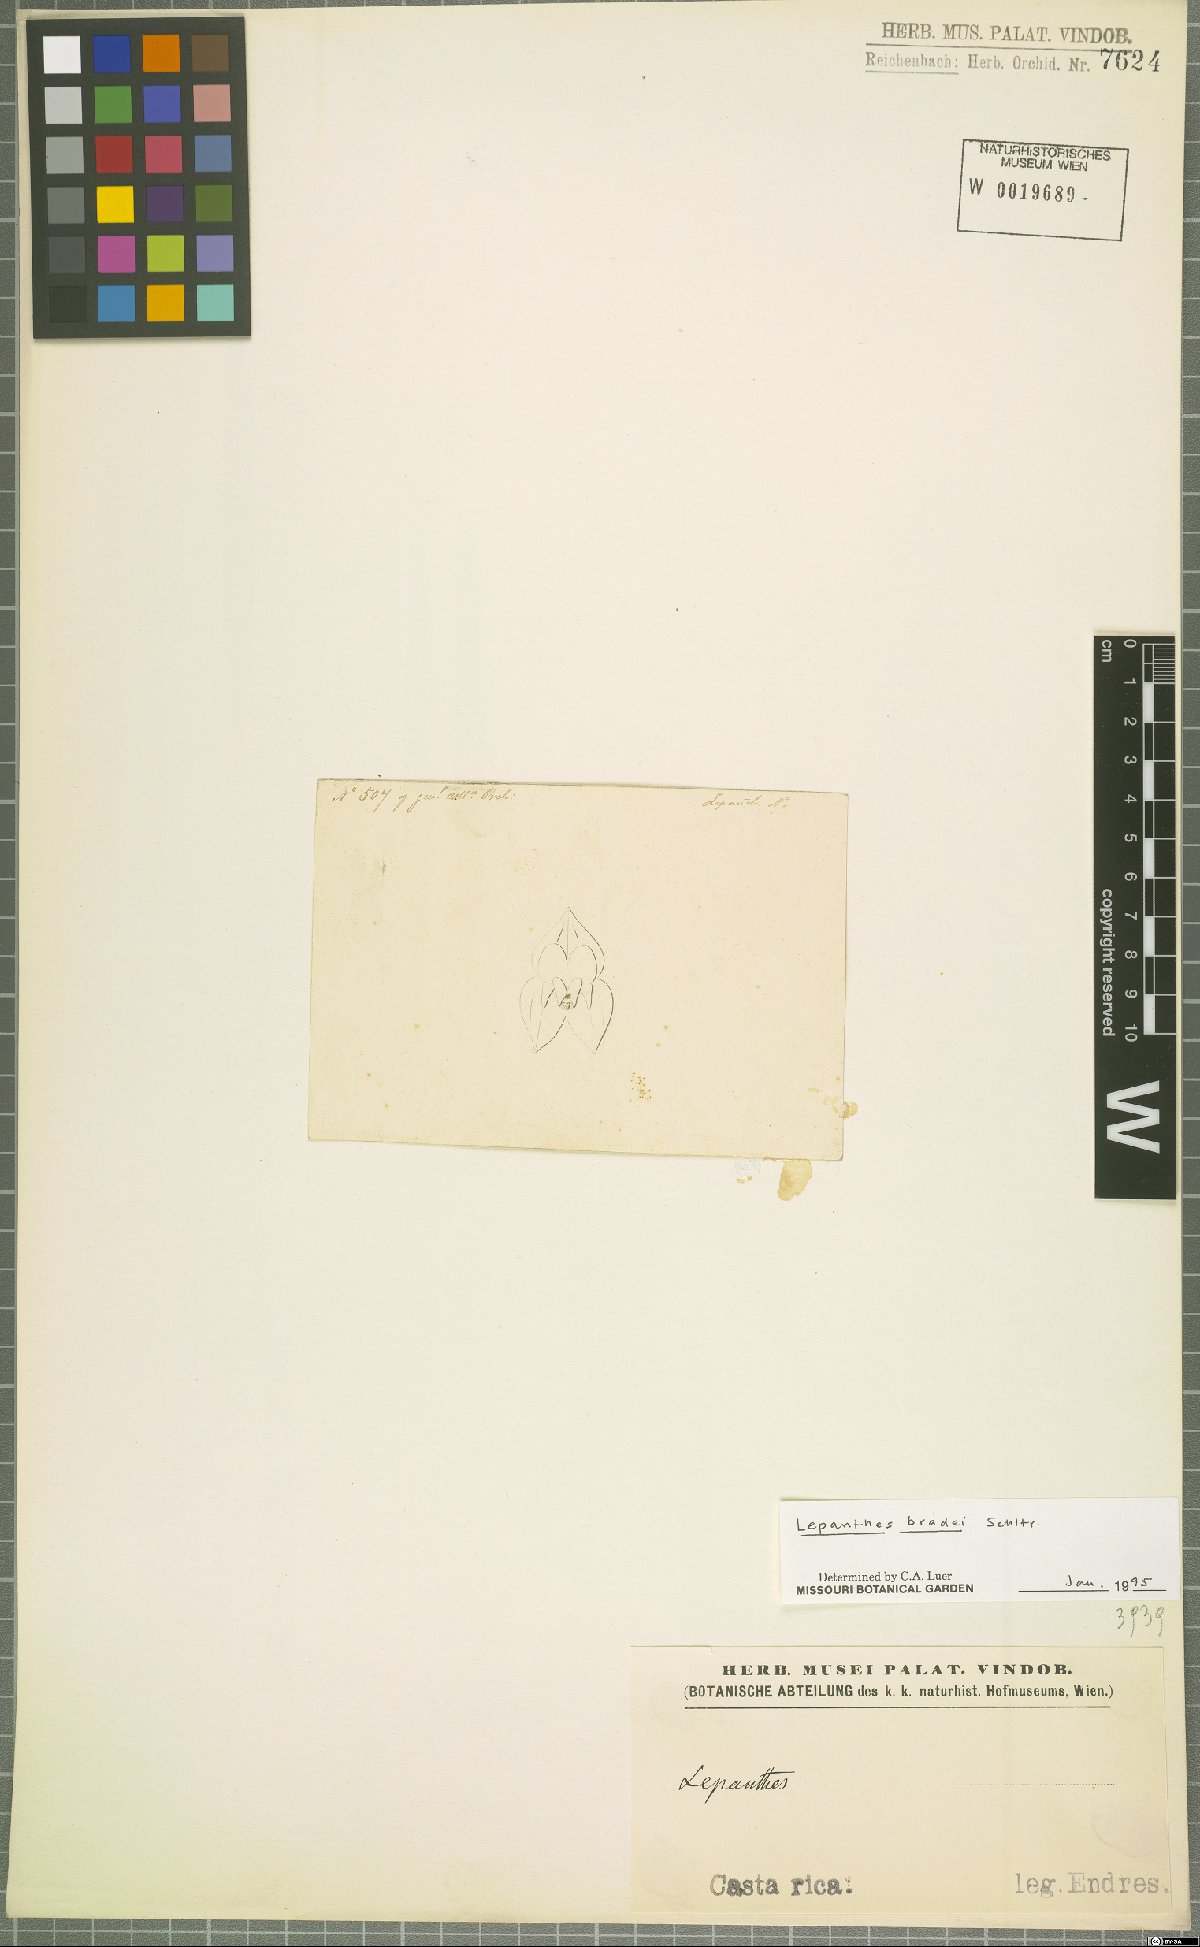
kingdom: Plantae
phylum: Tracheophyta
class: Liliopsida
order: Asparagales
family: Orchidaceae
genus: Lepanthes
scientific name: Lepanthes bradei
